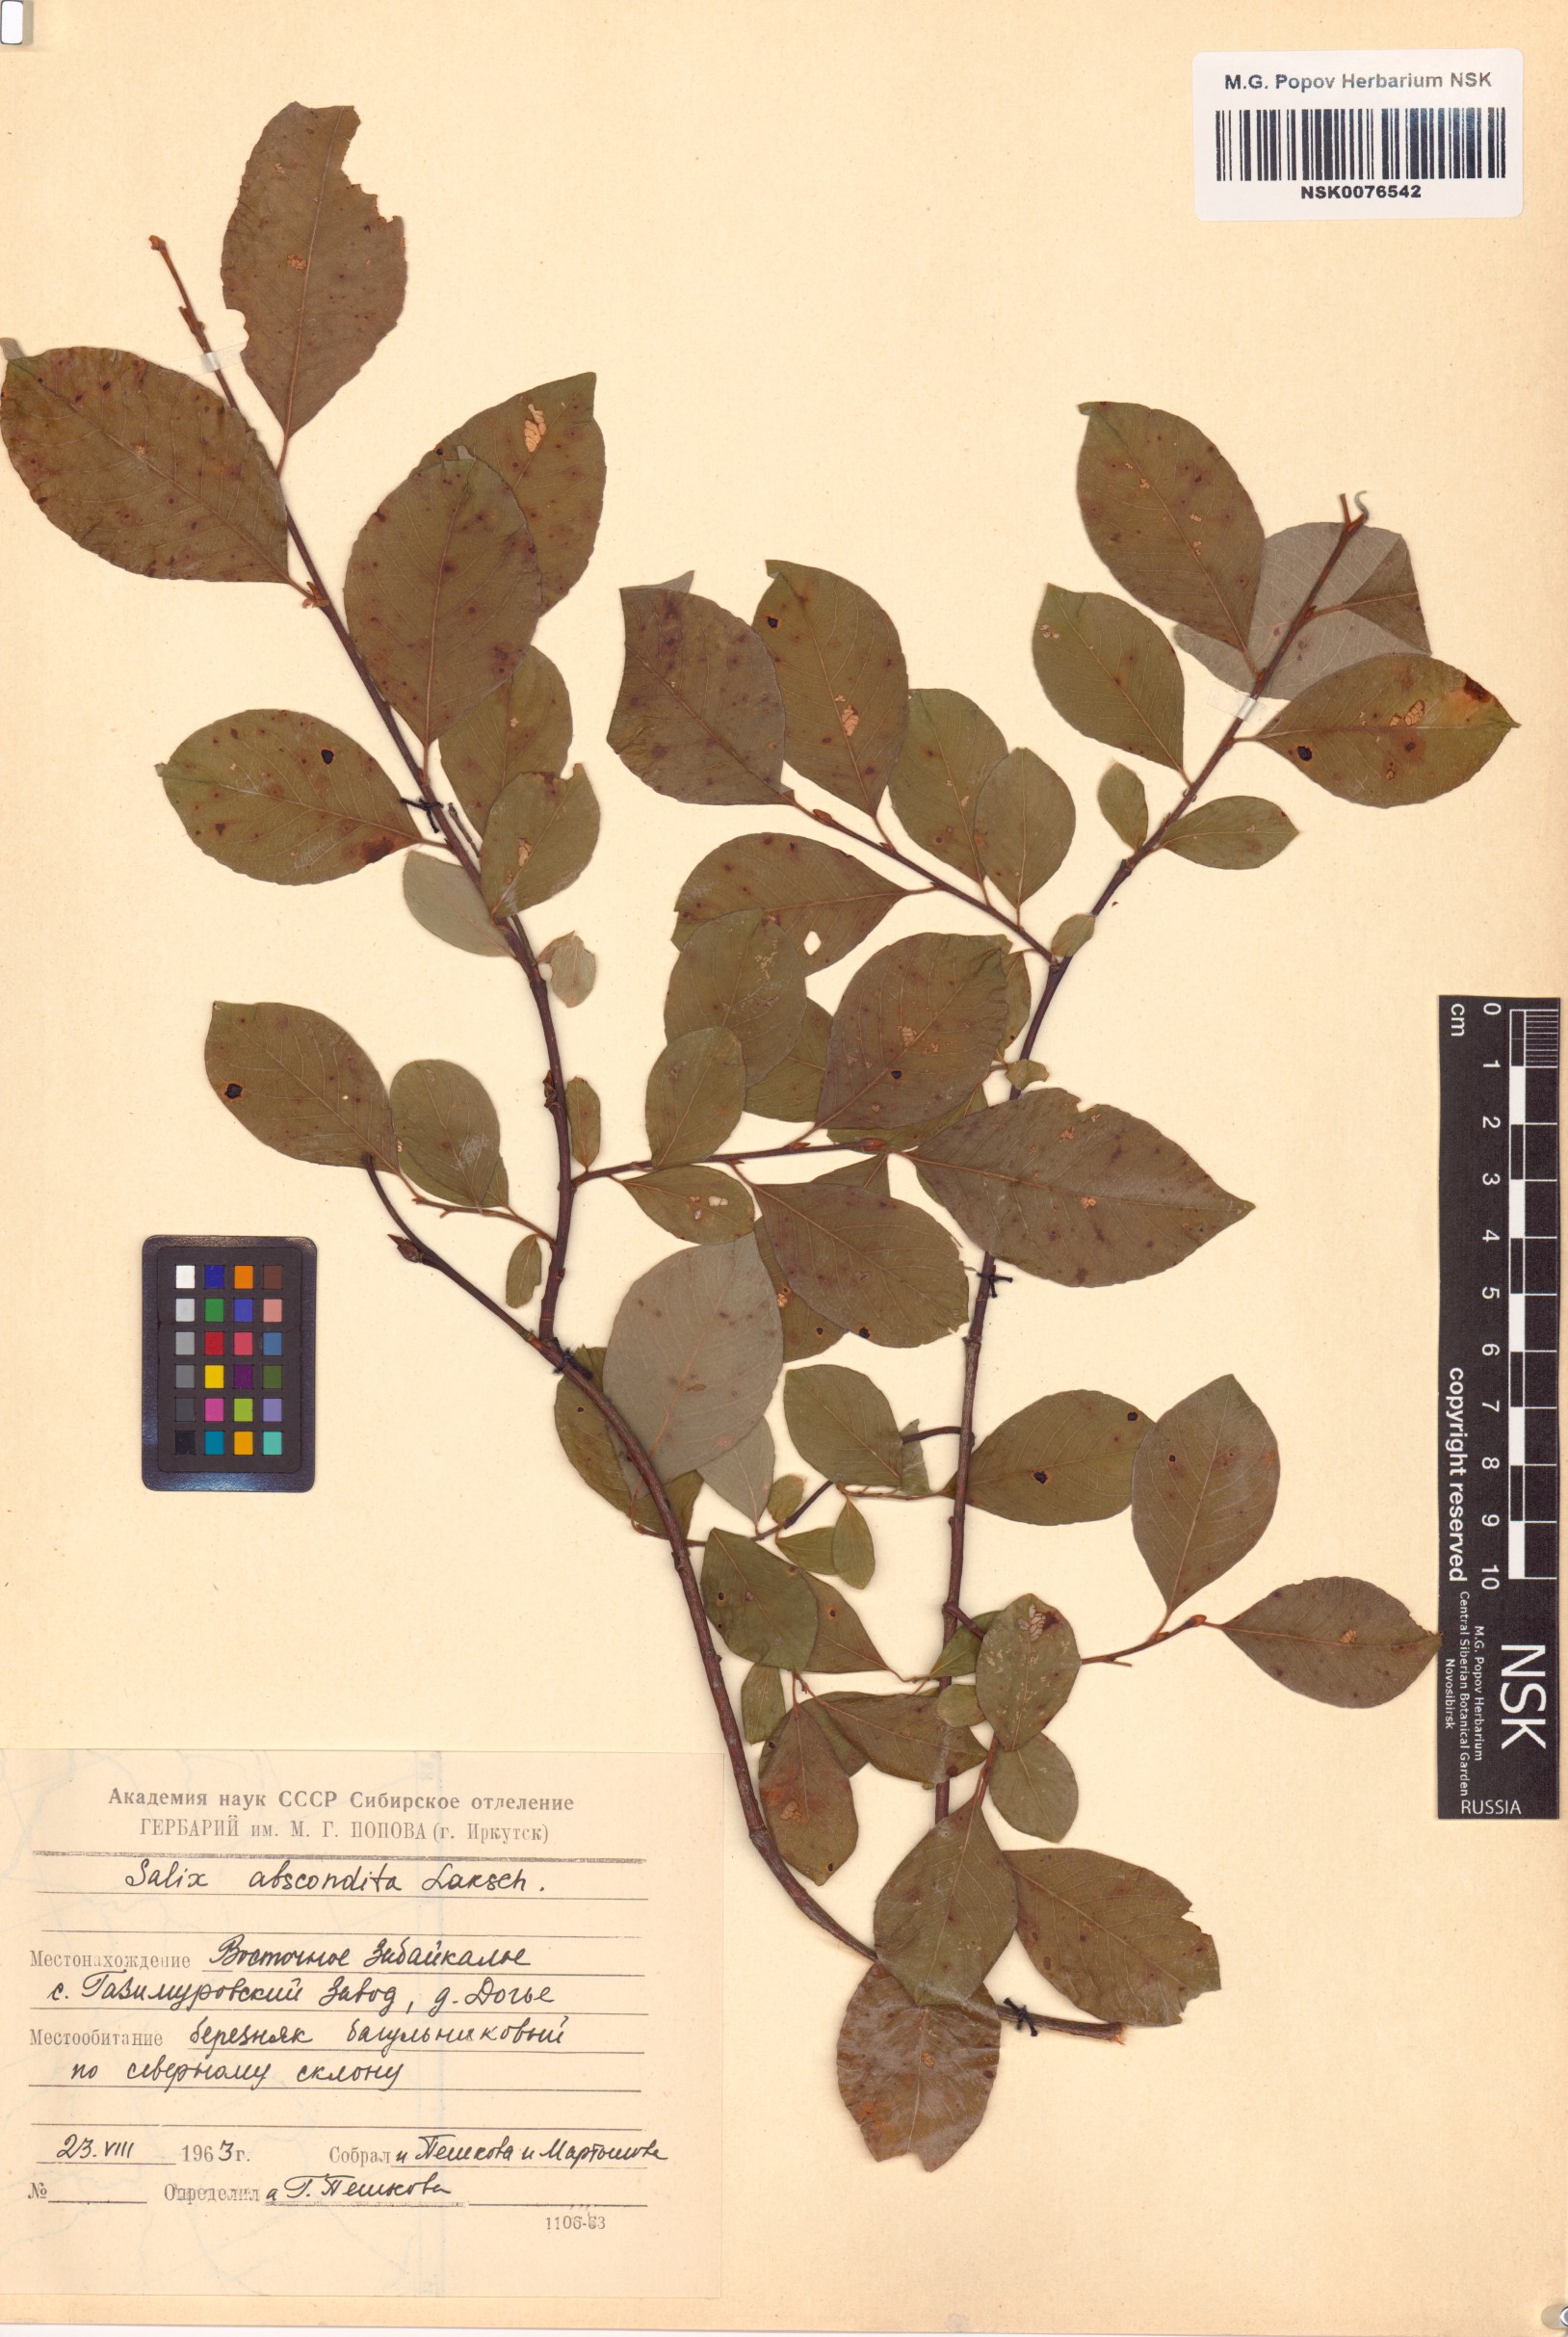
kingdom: Plantae
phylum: Tracheophyta
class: Magnoliopsida
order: Malpighiales
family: Salicaceae
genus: Salix
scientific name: Salix abscondita
